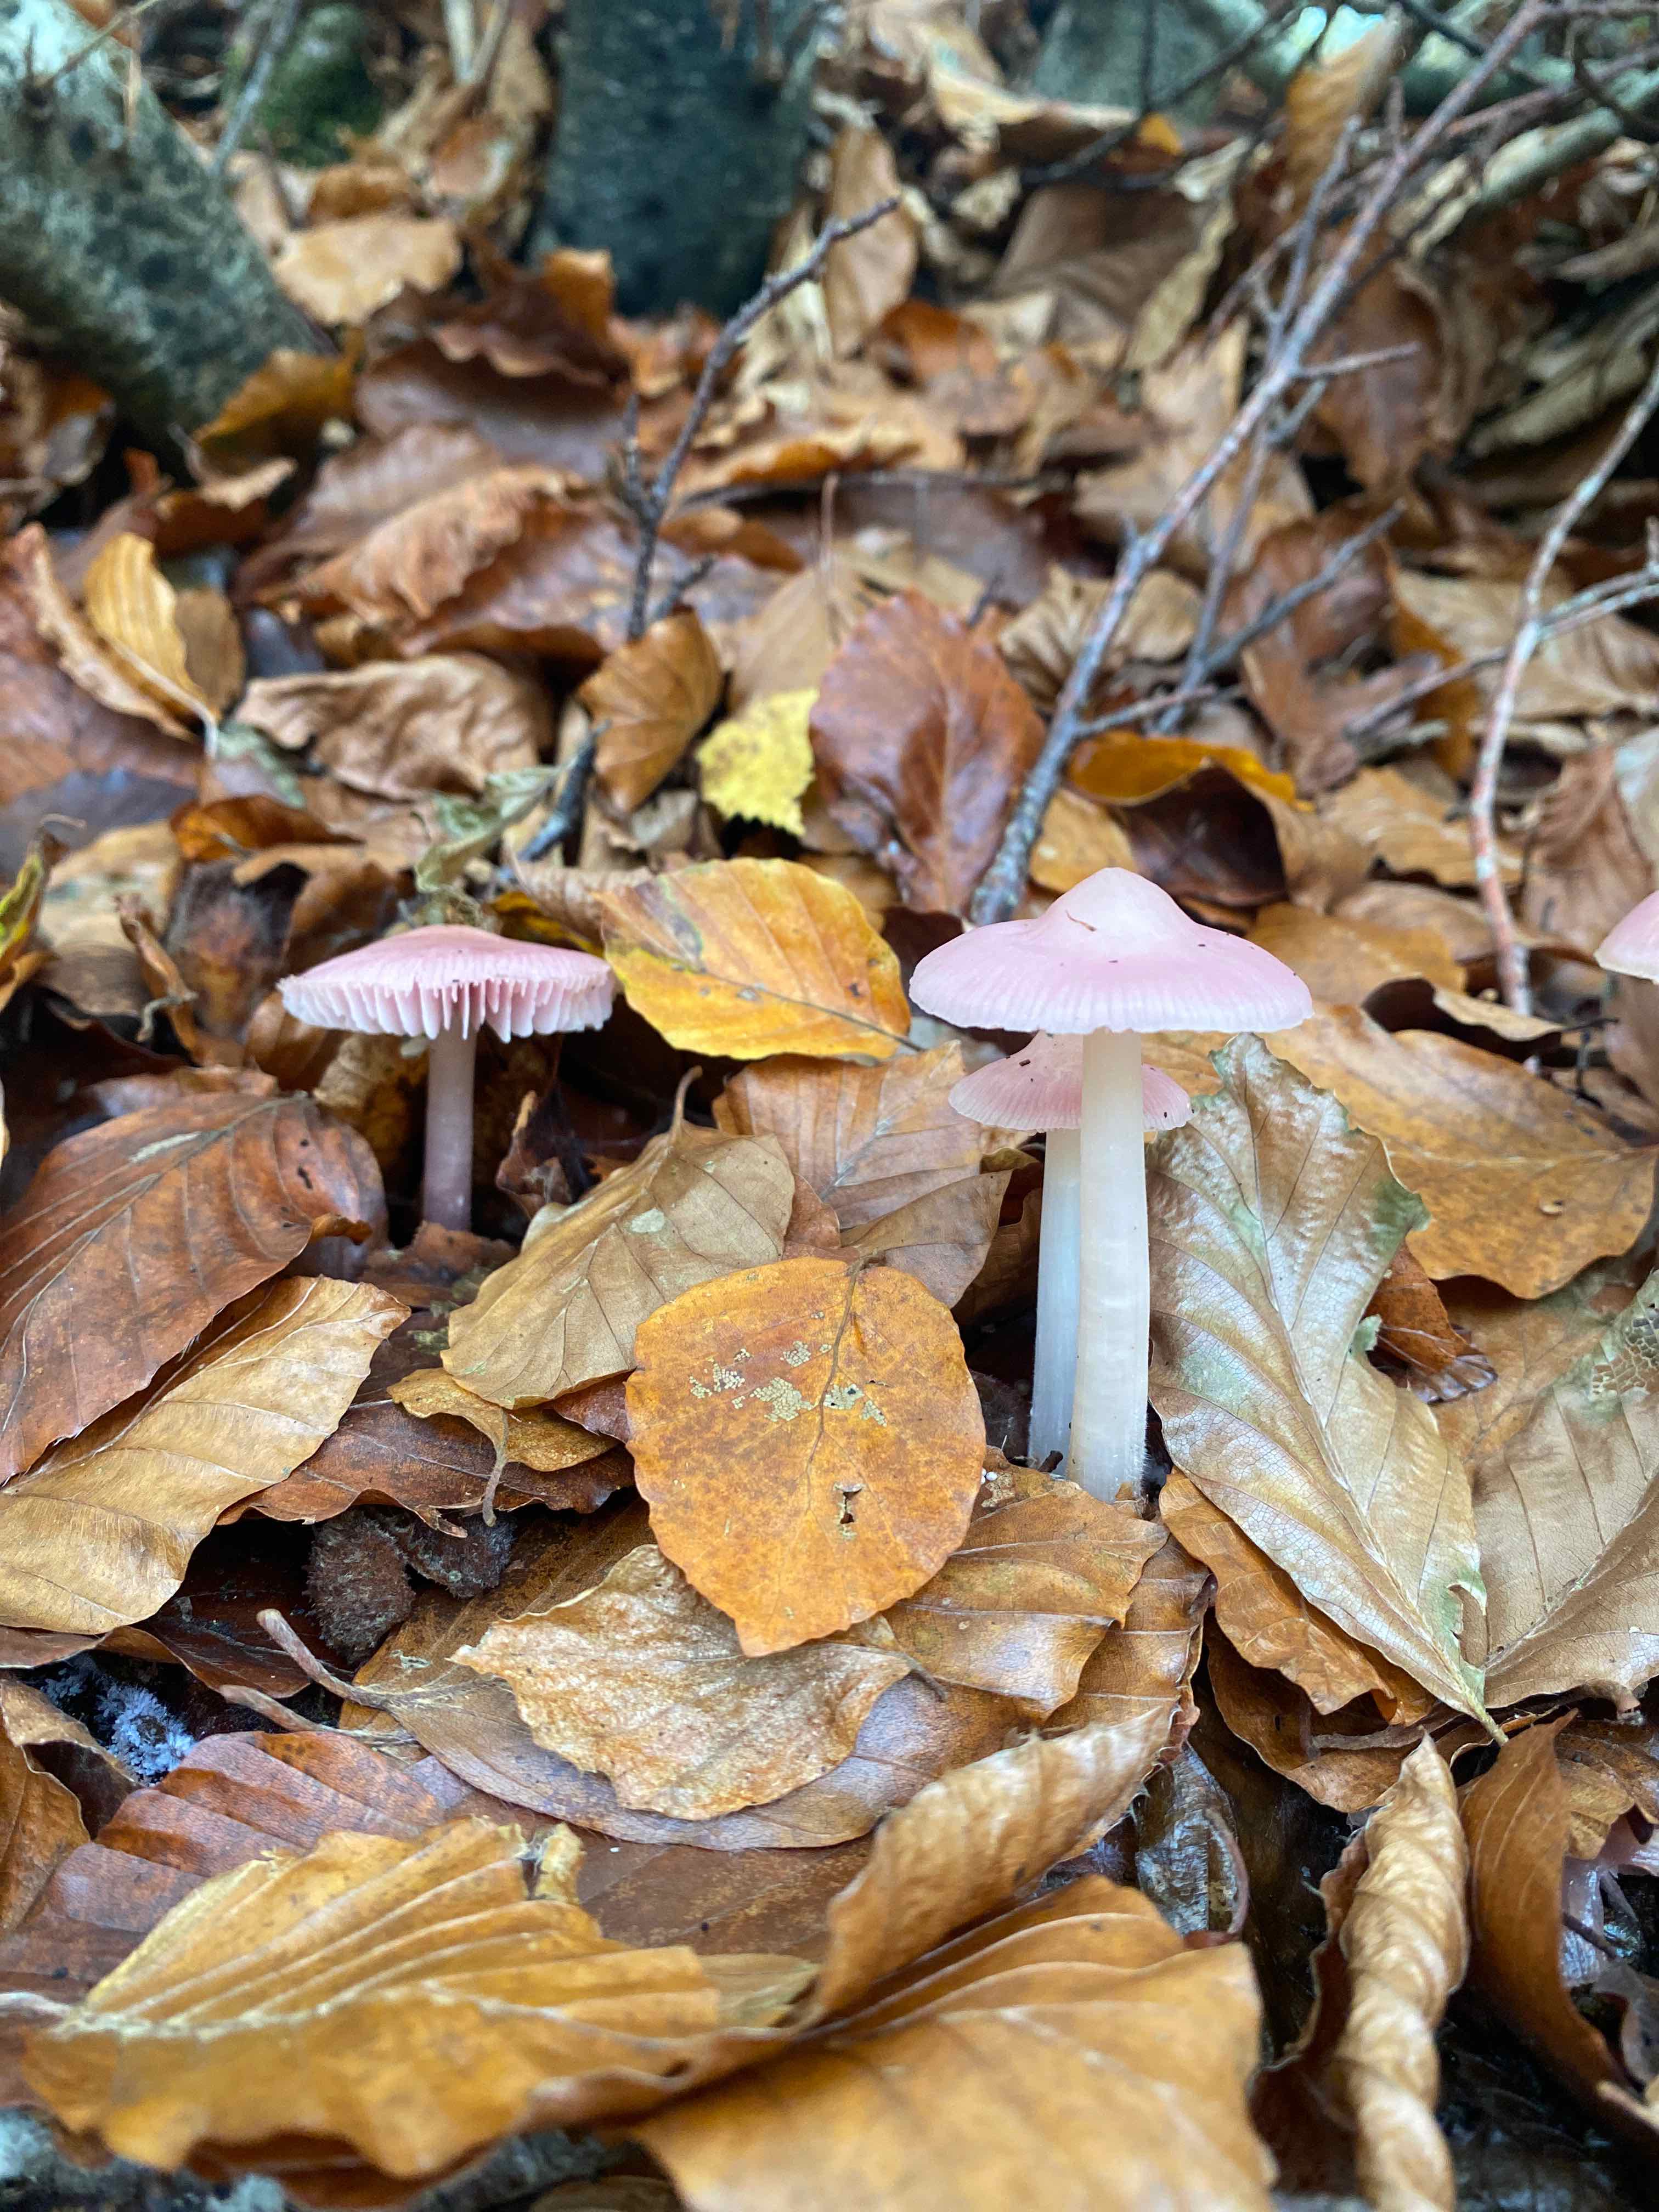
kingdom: Fungi
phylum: Basidiomycota
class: Agaricomycetes
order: Agaricales
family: Mycenaceae
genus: Mycena
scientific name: Mycena rosea
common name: rosa huesvamp
